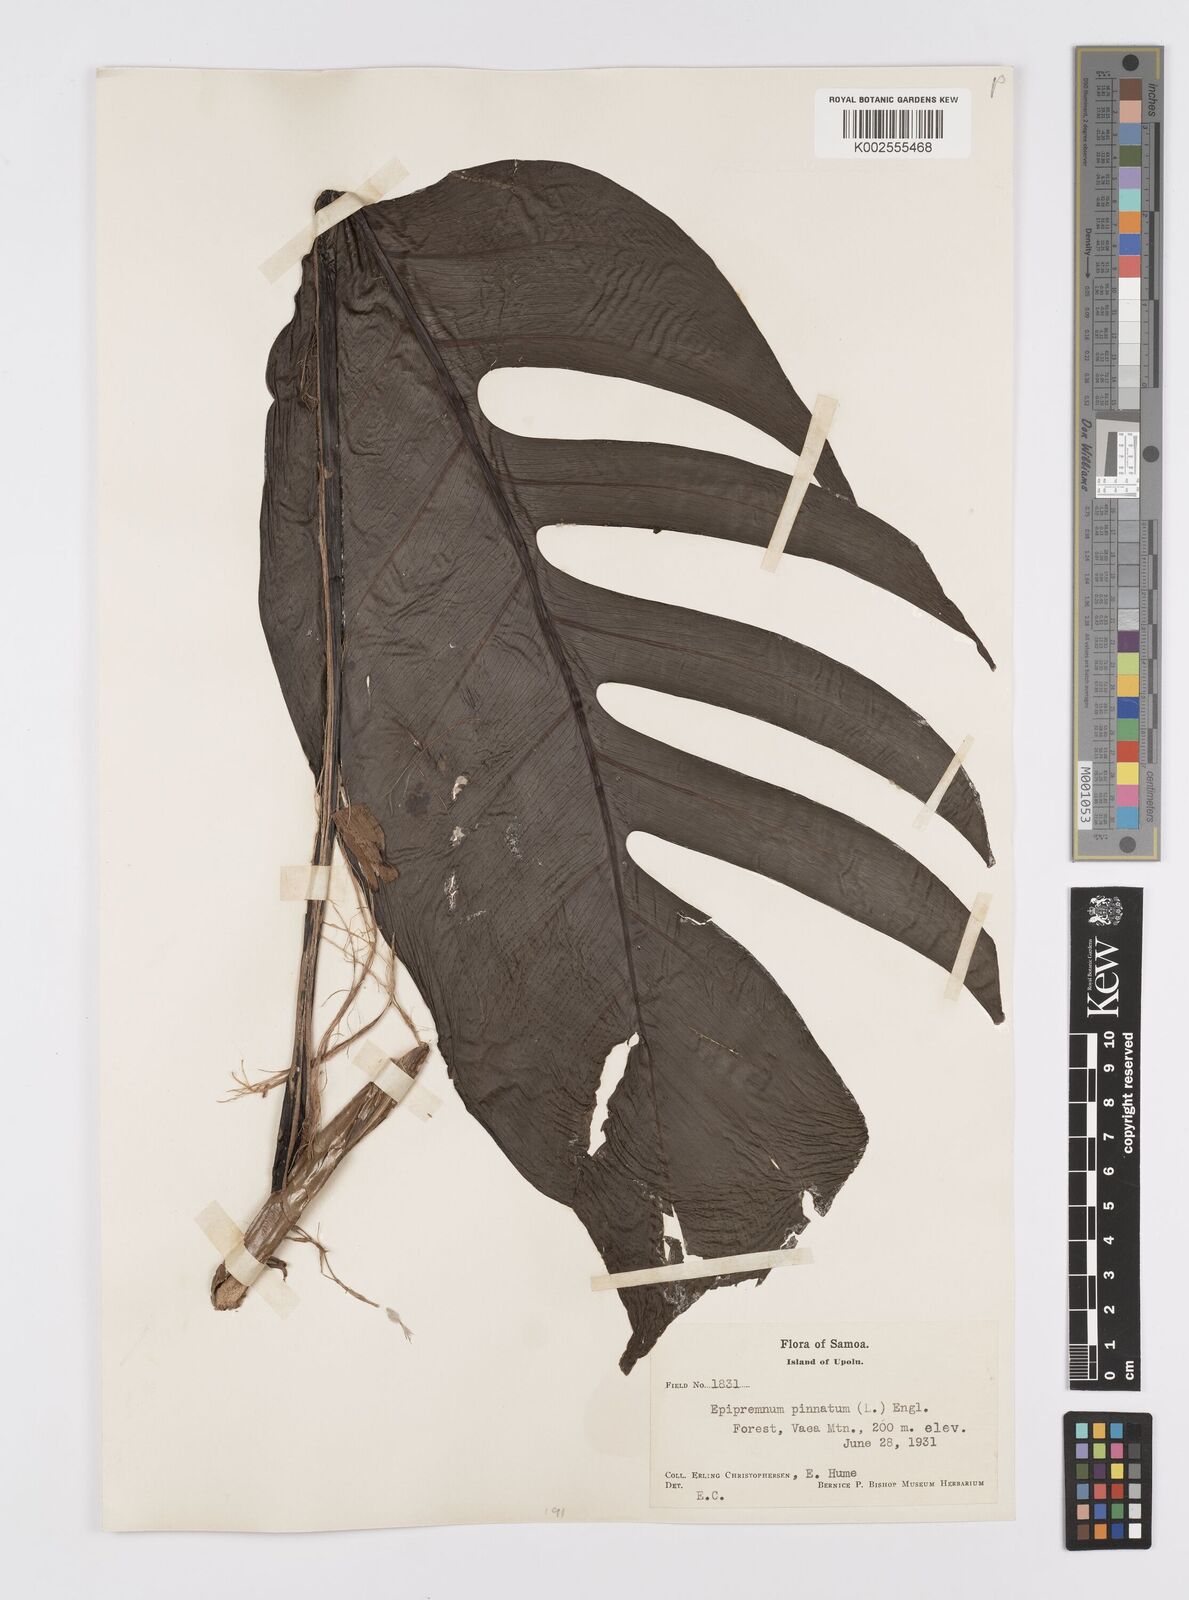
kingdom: Plantae
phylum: Tracheophyta
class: Liliopsida
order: Alismatales
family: Araceae
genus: Epipremnum
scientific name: Epipremnum pinnatum
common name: Centipede tongavine
